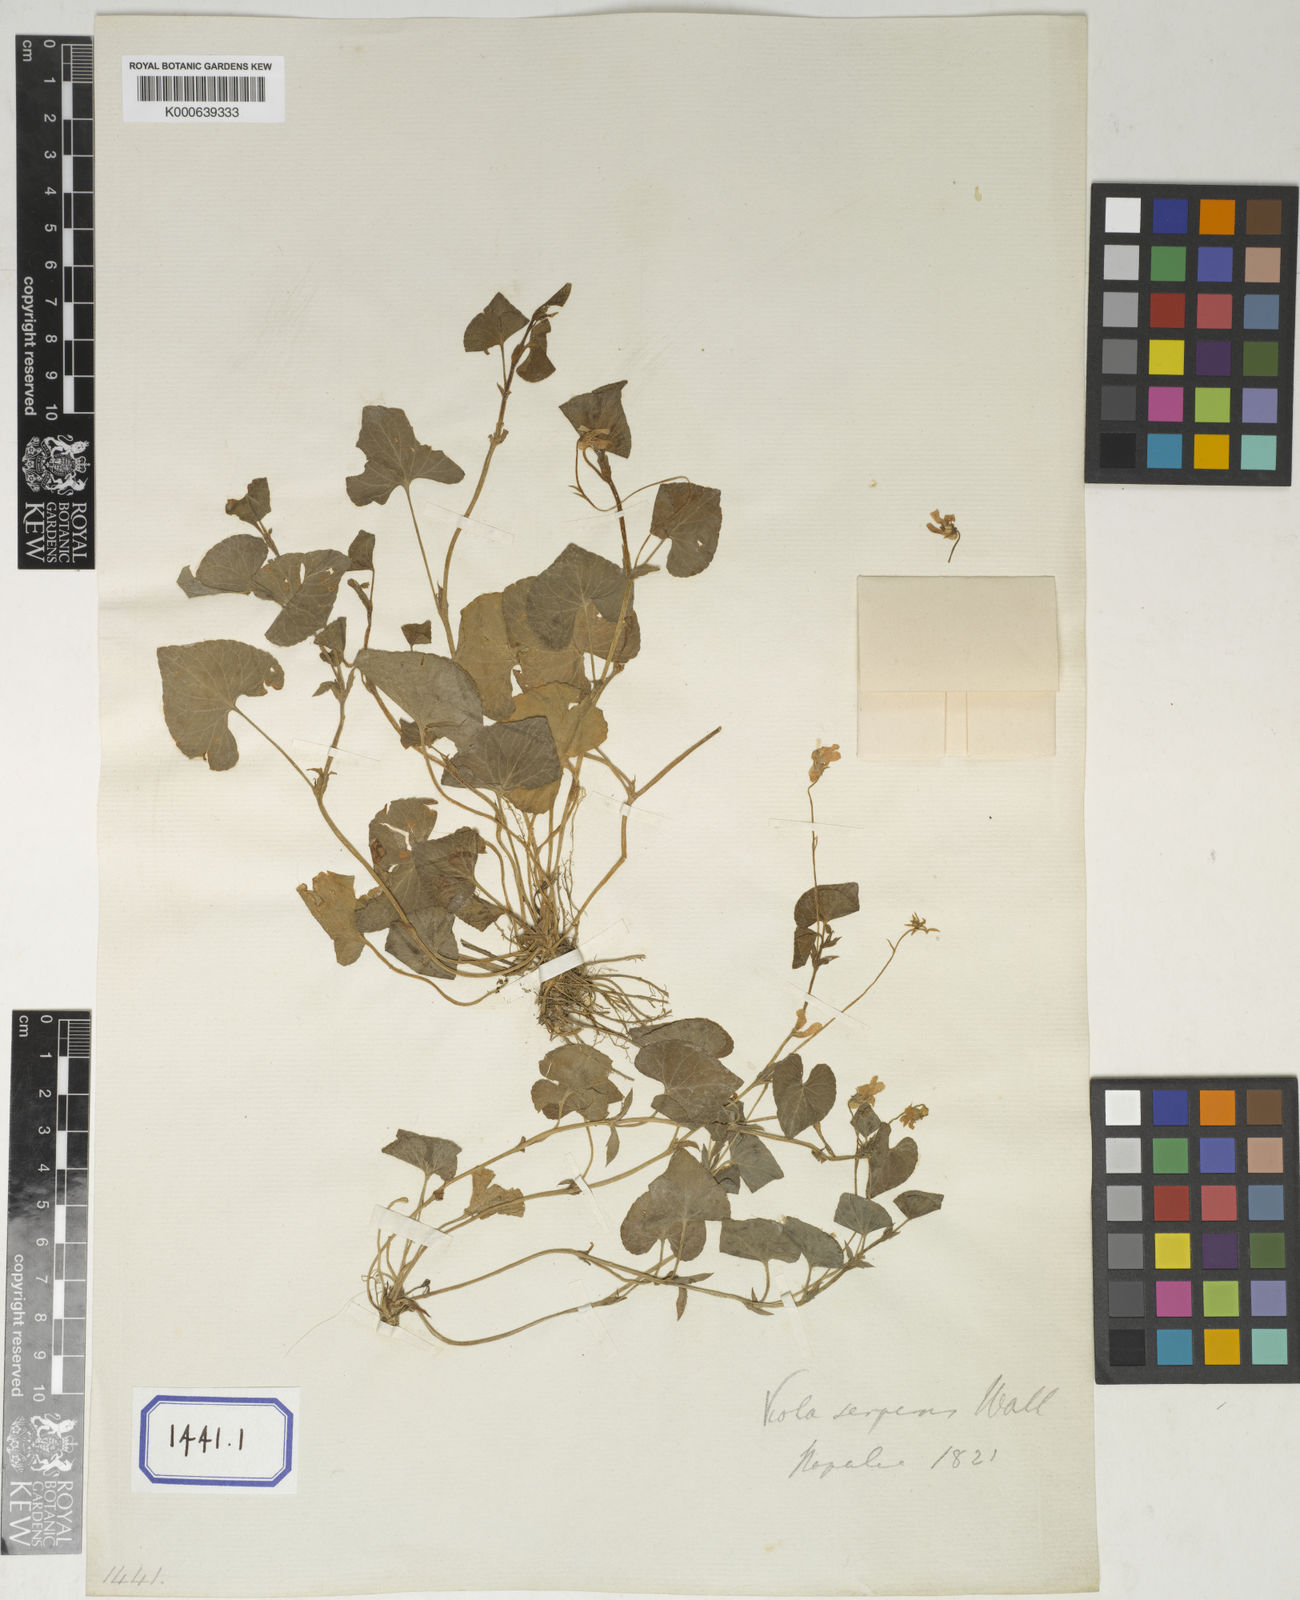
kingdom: Plantae
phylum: Tracheophyta
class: Magnoliopsida
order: Malpighiales
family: Violaceae
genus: Viola
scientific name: Viola
